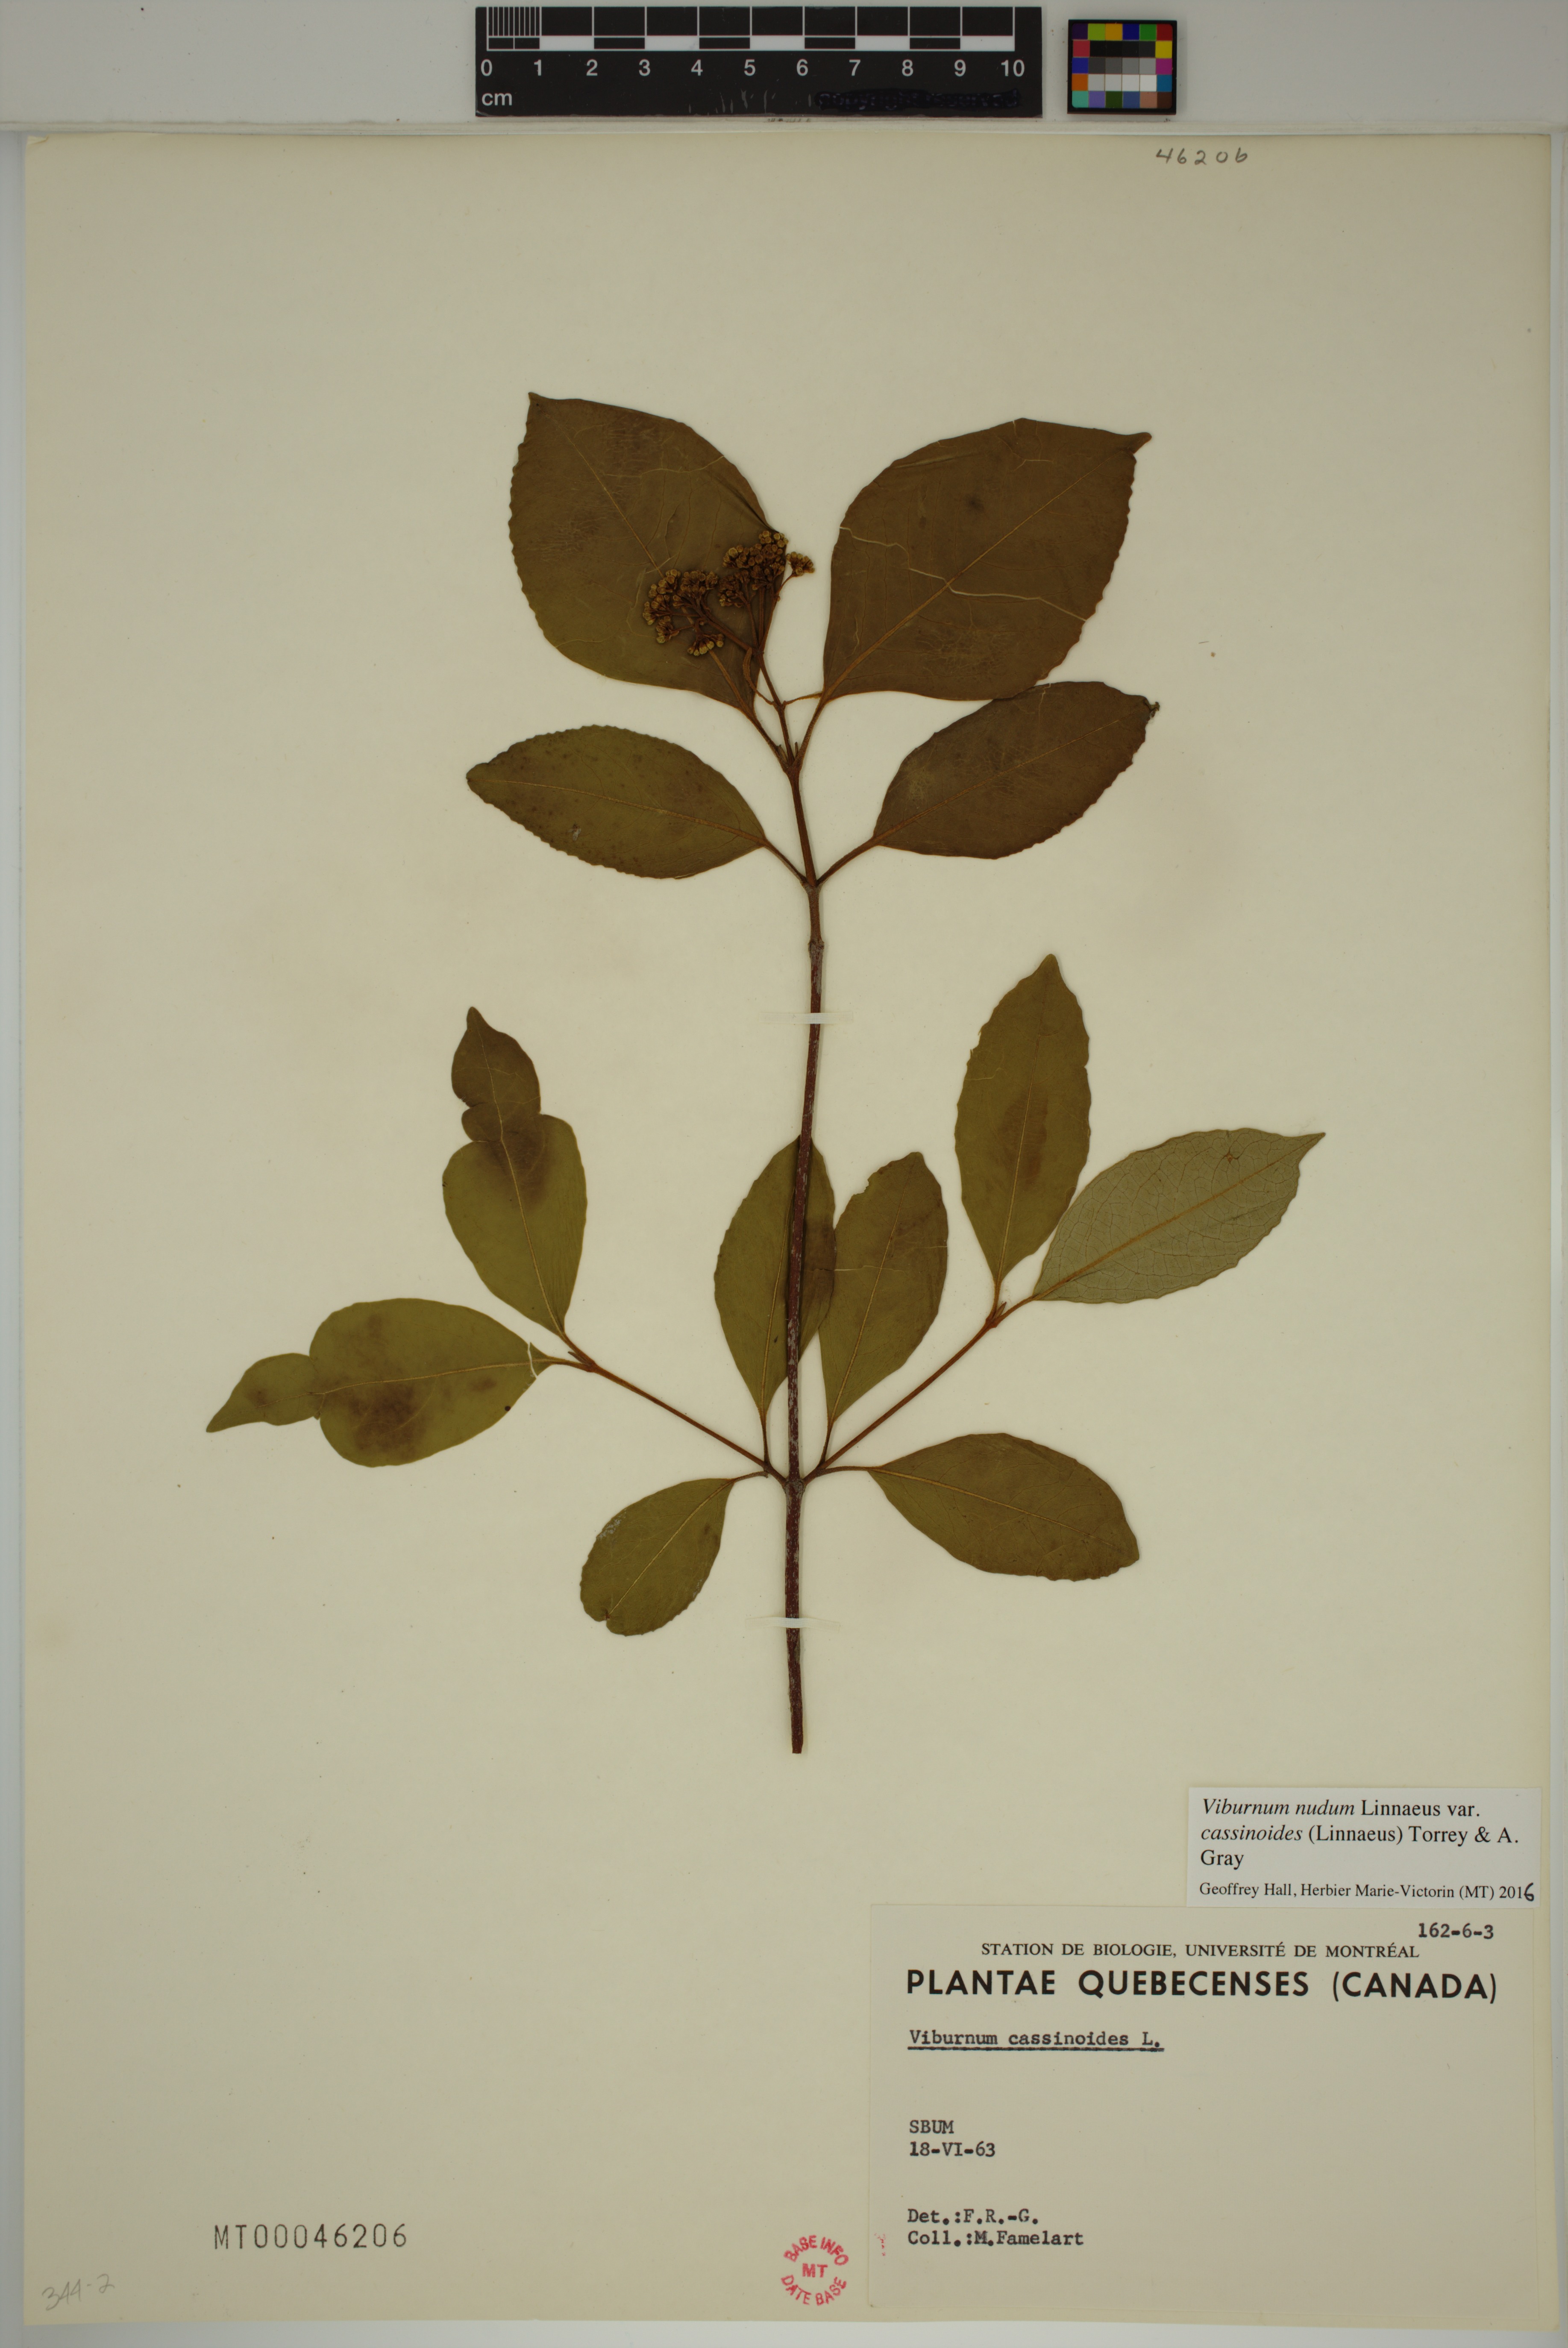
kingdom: Plantae
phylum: Tracheophyta
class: Magnoliopsida
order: Dipsacales
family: Viburnaceae
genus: Viburnum
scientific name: Viburnum cassinoides
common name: Swamp haw
